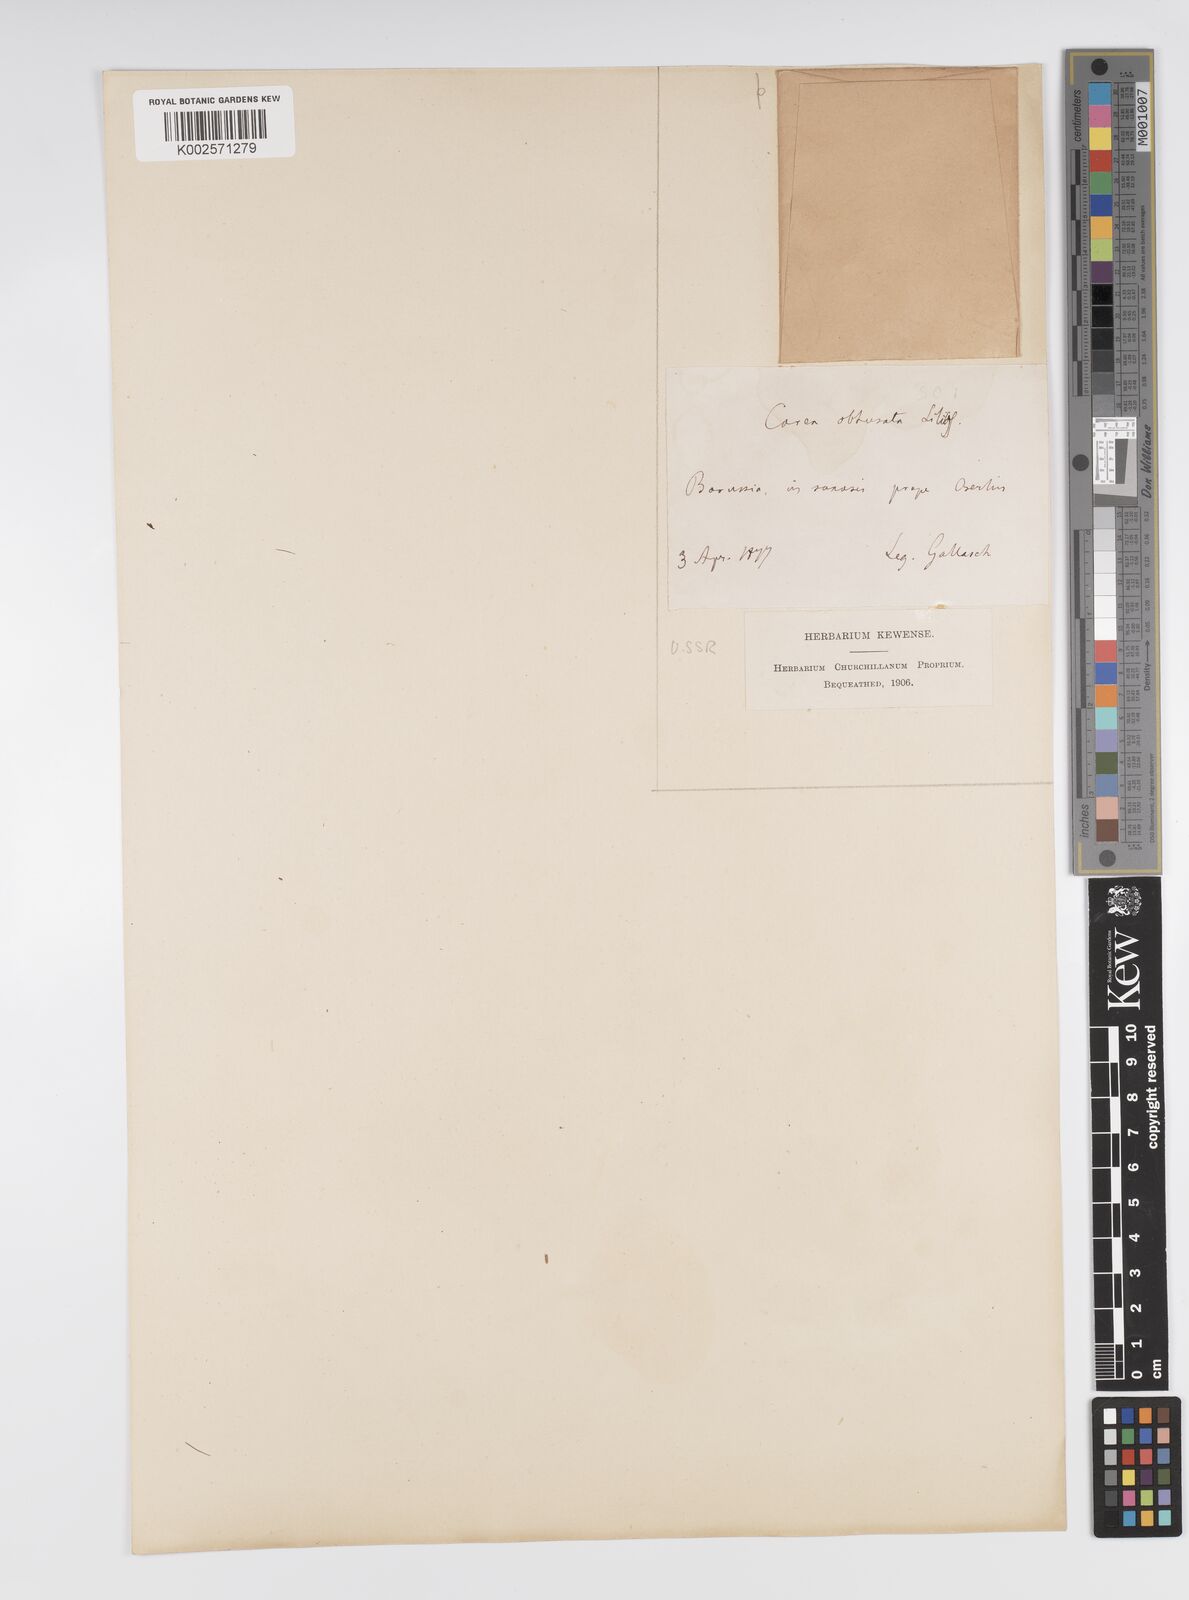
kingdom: Plantae
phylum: Tracheophyta
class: Liliopsida
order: Poales
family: Cyperaceae
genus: Carex
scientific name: Carex supina
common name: Lying-back sedge
